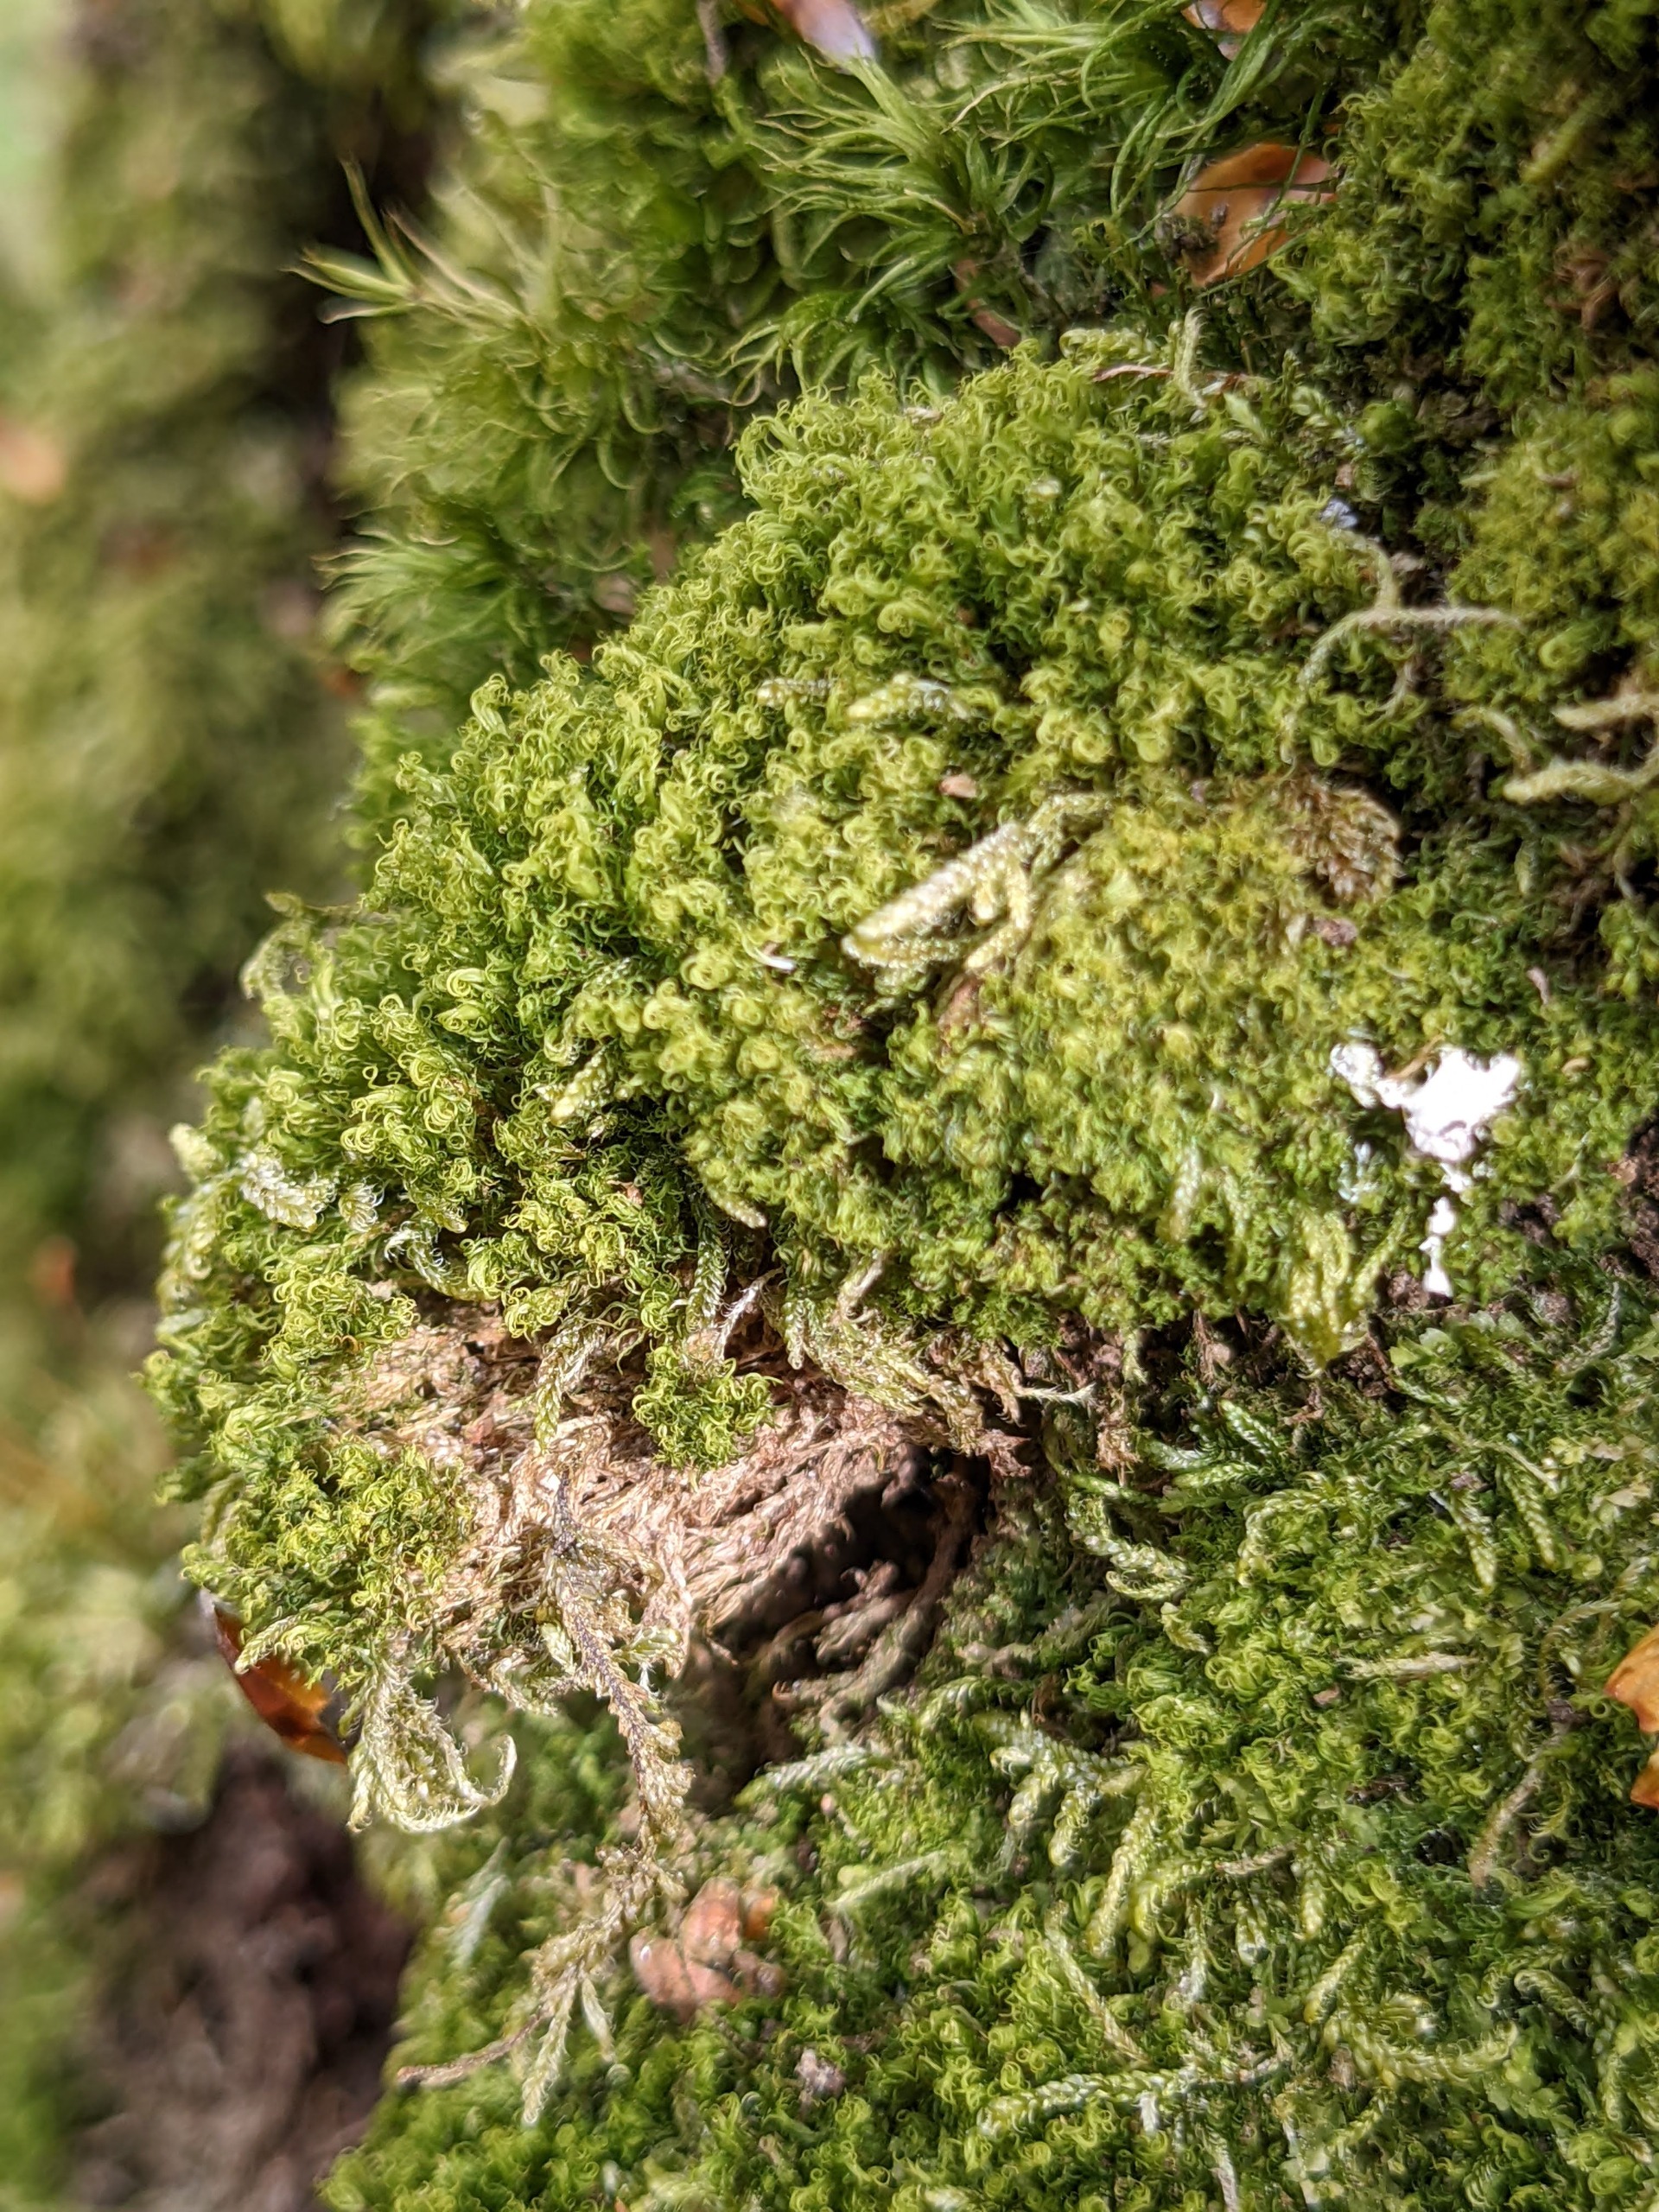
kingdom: Plantae
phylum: Bryophyta
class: Bryopsida
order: Dicranales
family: Dicranaceae
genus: Orthodicranum
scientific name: Orthodicranum montanum
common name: Tæt tyndvinge
